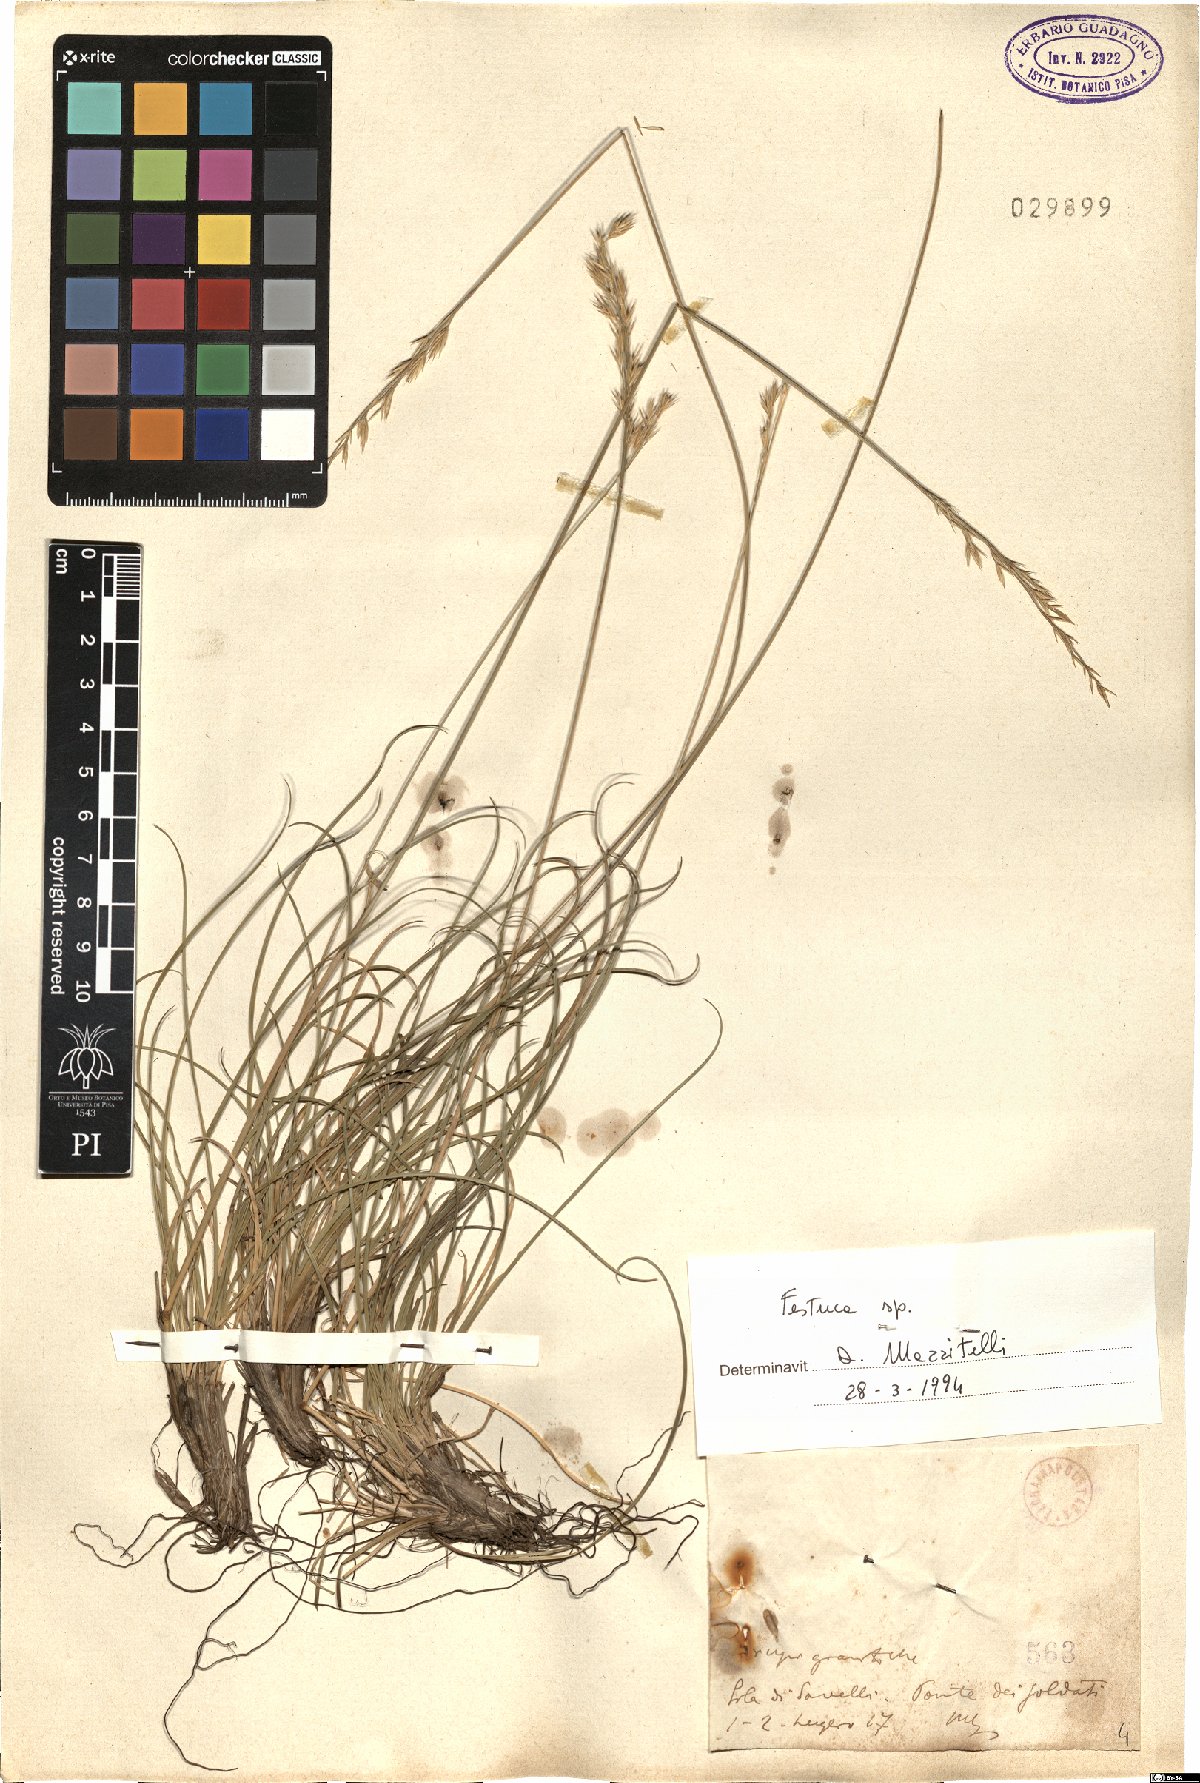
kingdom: Plantae
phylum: Tracheophyta
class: Liliopsida
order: Poales
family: Poaceae
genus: Festuca
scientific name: Festuca
